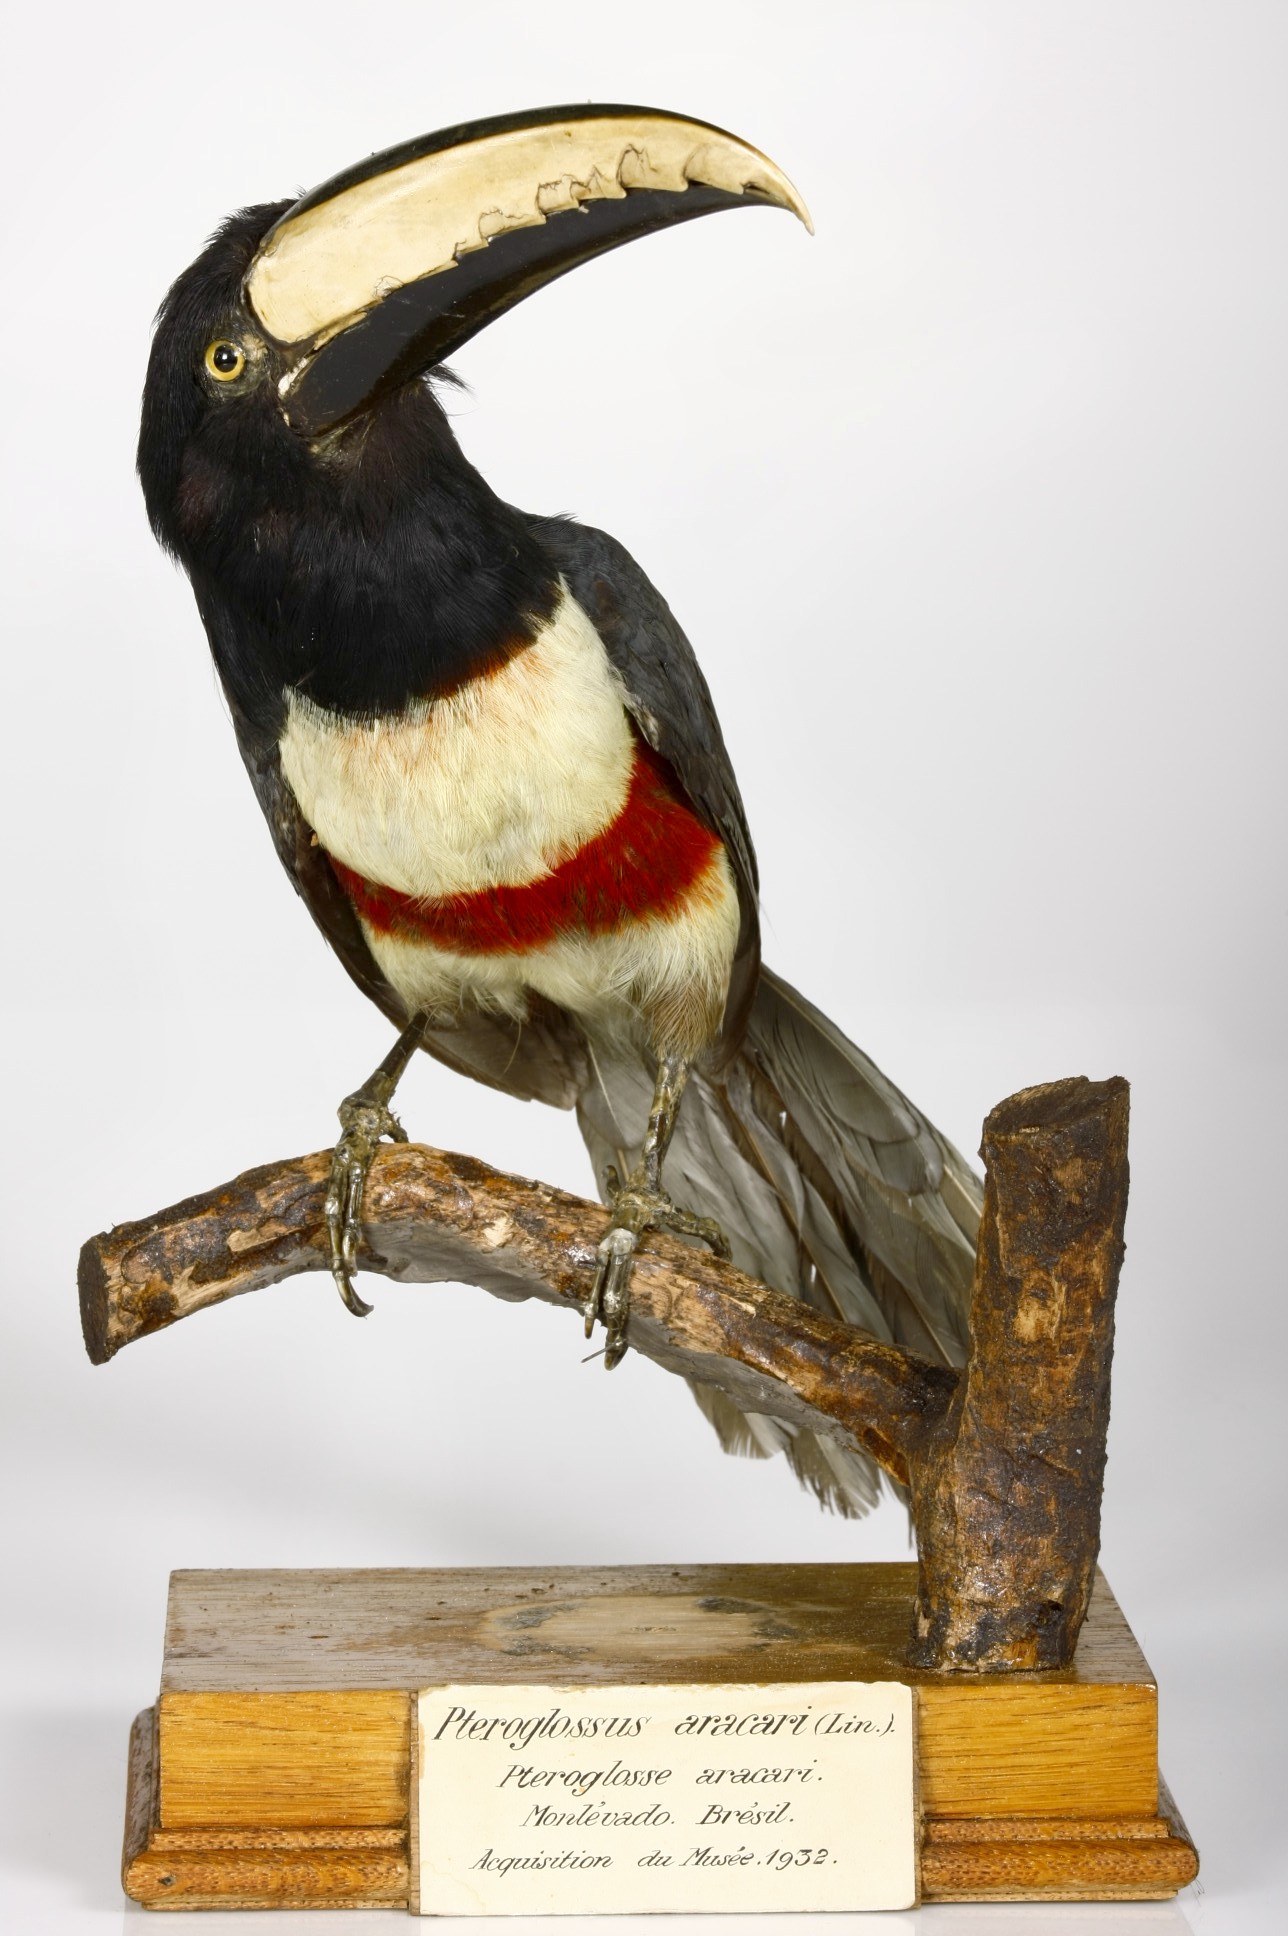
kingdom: Animalia
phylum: Chordata
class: Aves
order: Piciformes
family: Ramphastidae
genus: Pteroglossus
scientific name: Pteroglossus aracari
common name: Black-necked aracari
